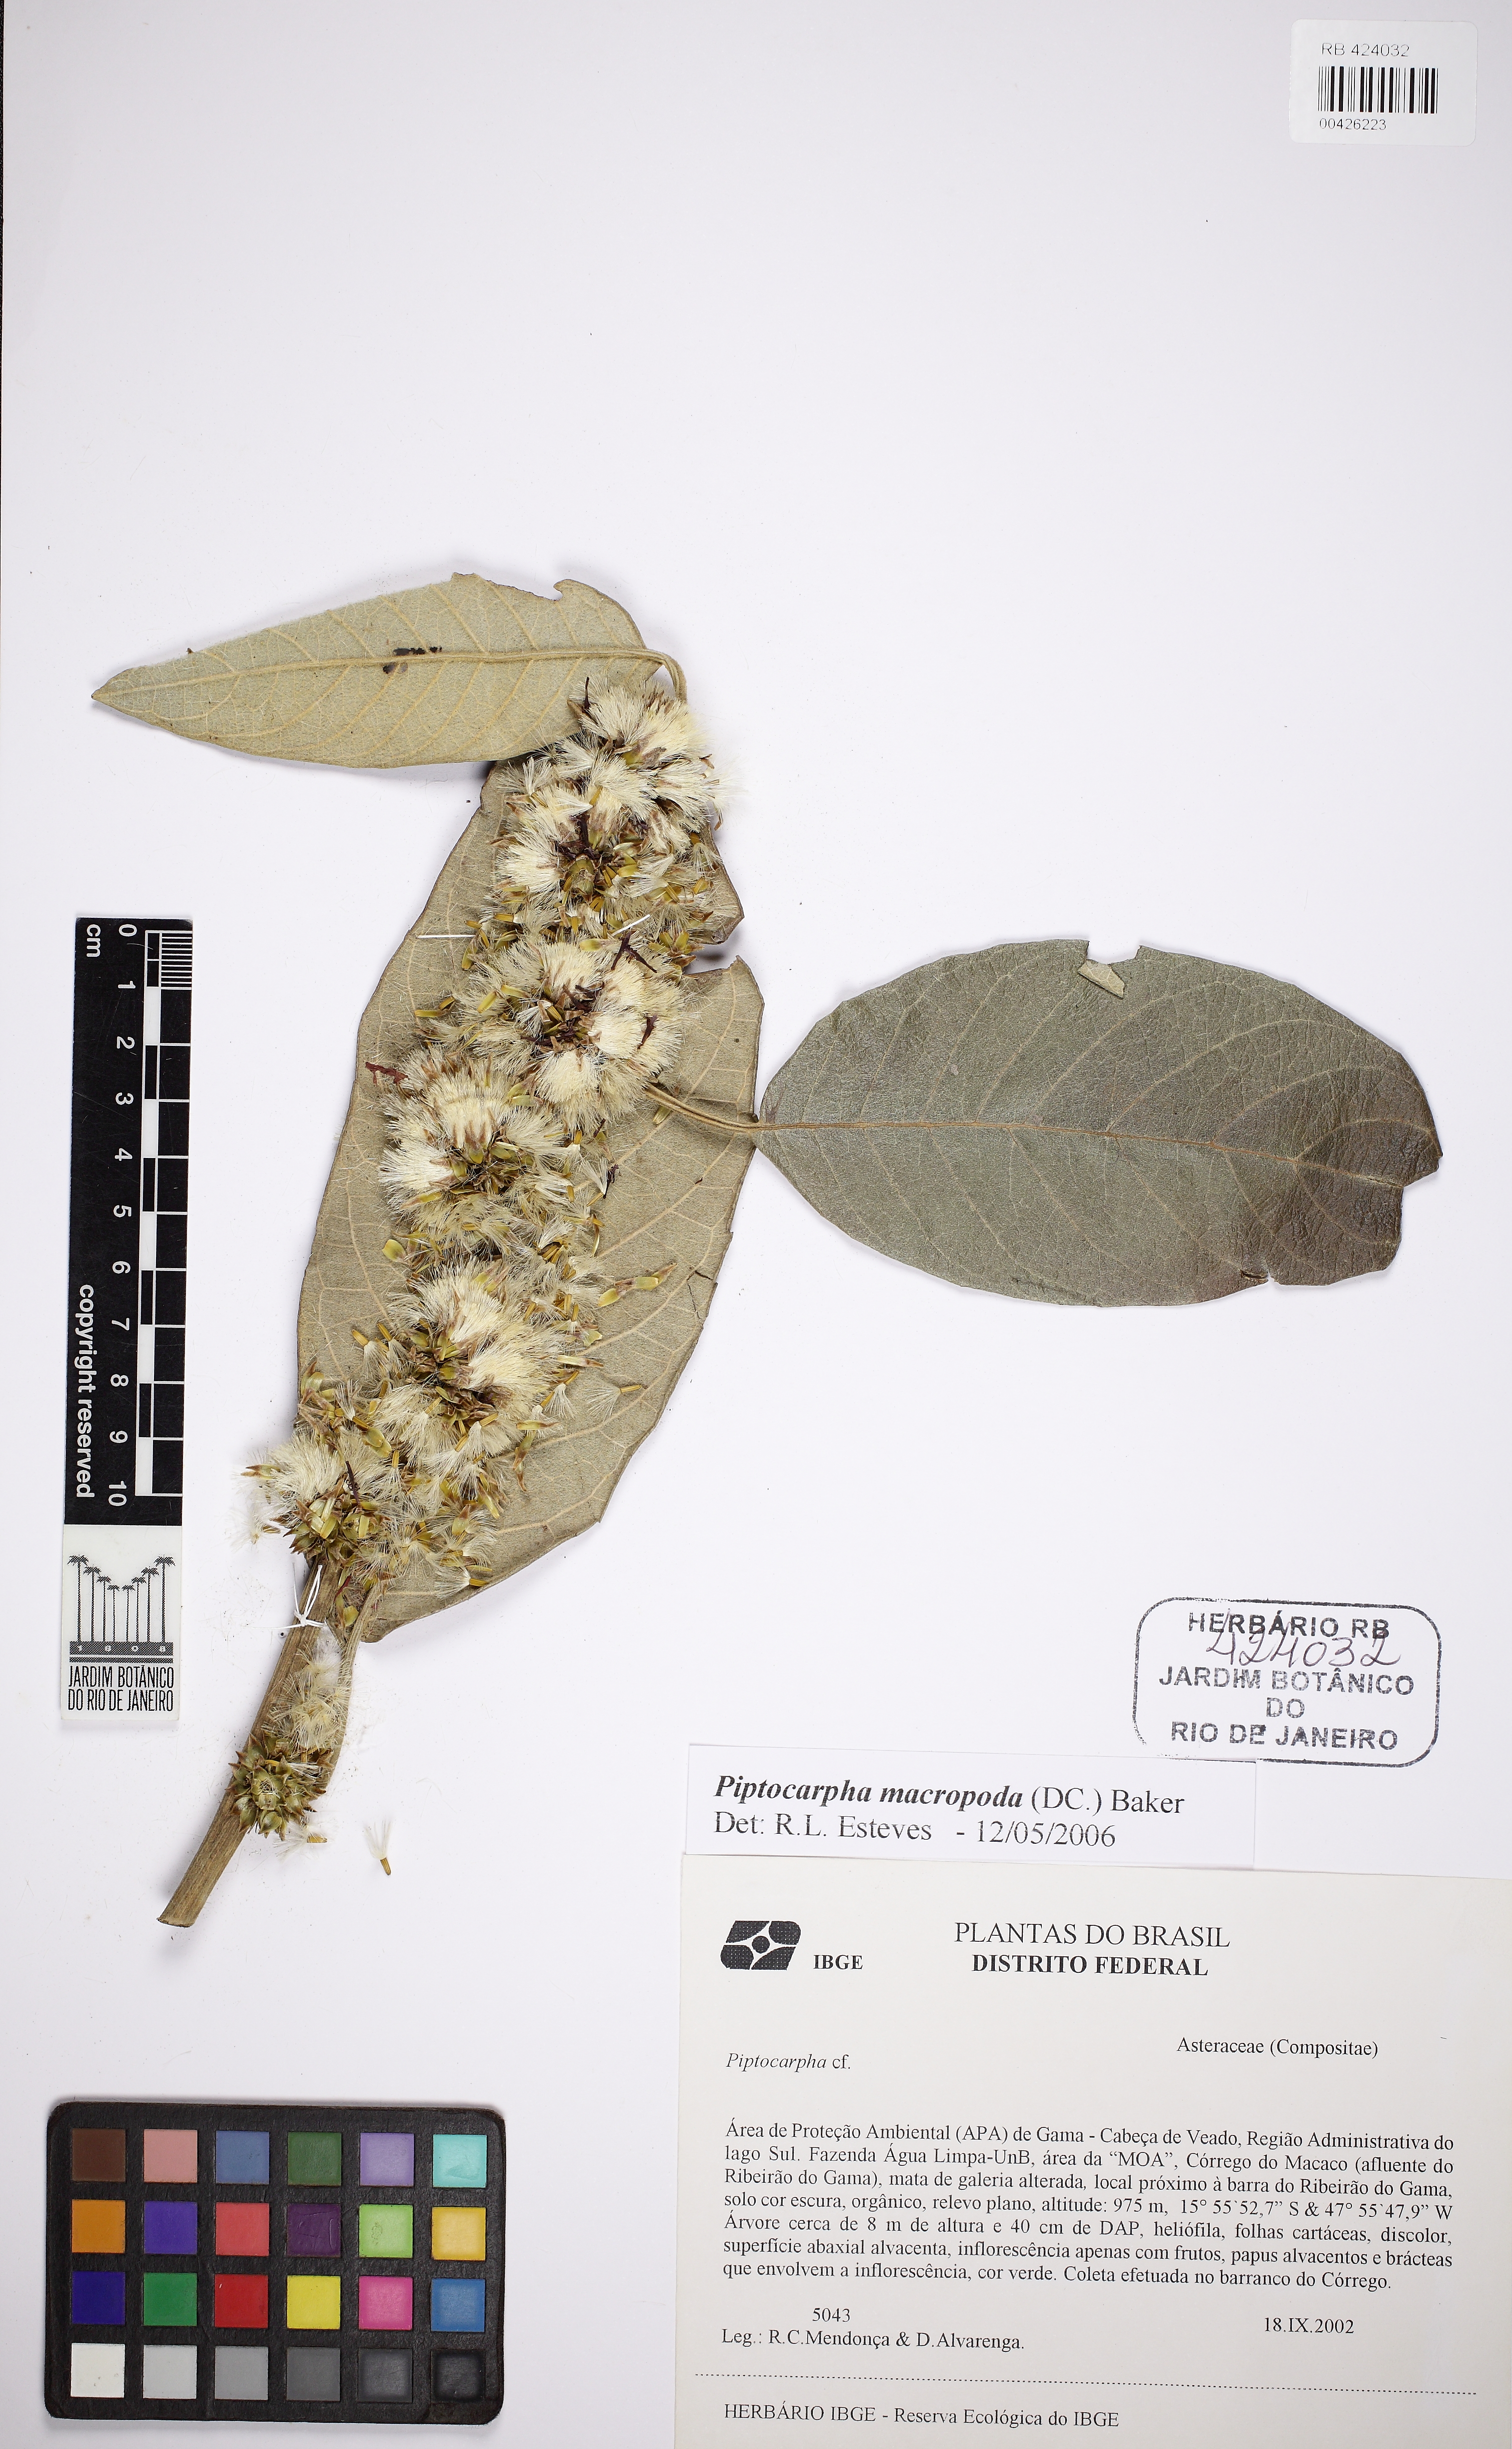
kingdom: Plantae
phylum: Tracheophyta
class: Magnoliopsida
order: Asterales
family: Asteraceae
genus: Piptocarpha
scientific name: Piptocarpha macropoda
